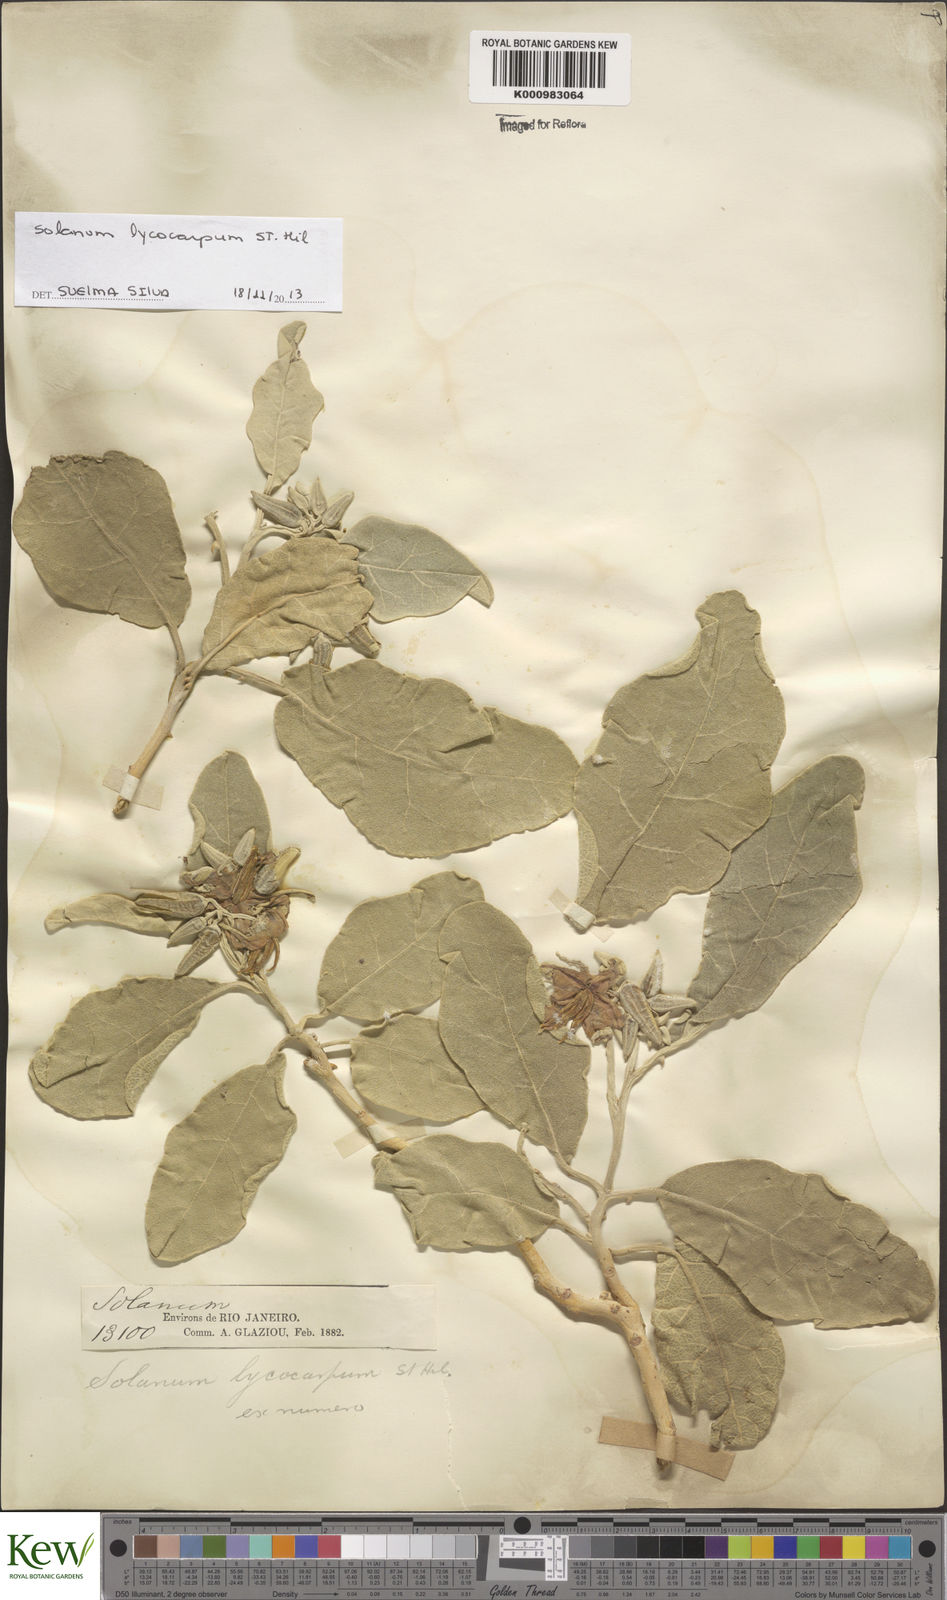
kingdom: Plantae
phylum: Tracheophyta
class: Magnoliopsida
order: Solanales
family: Solanaceae
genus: Solanum
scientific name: Solanum lycocarpum
